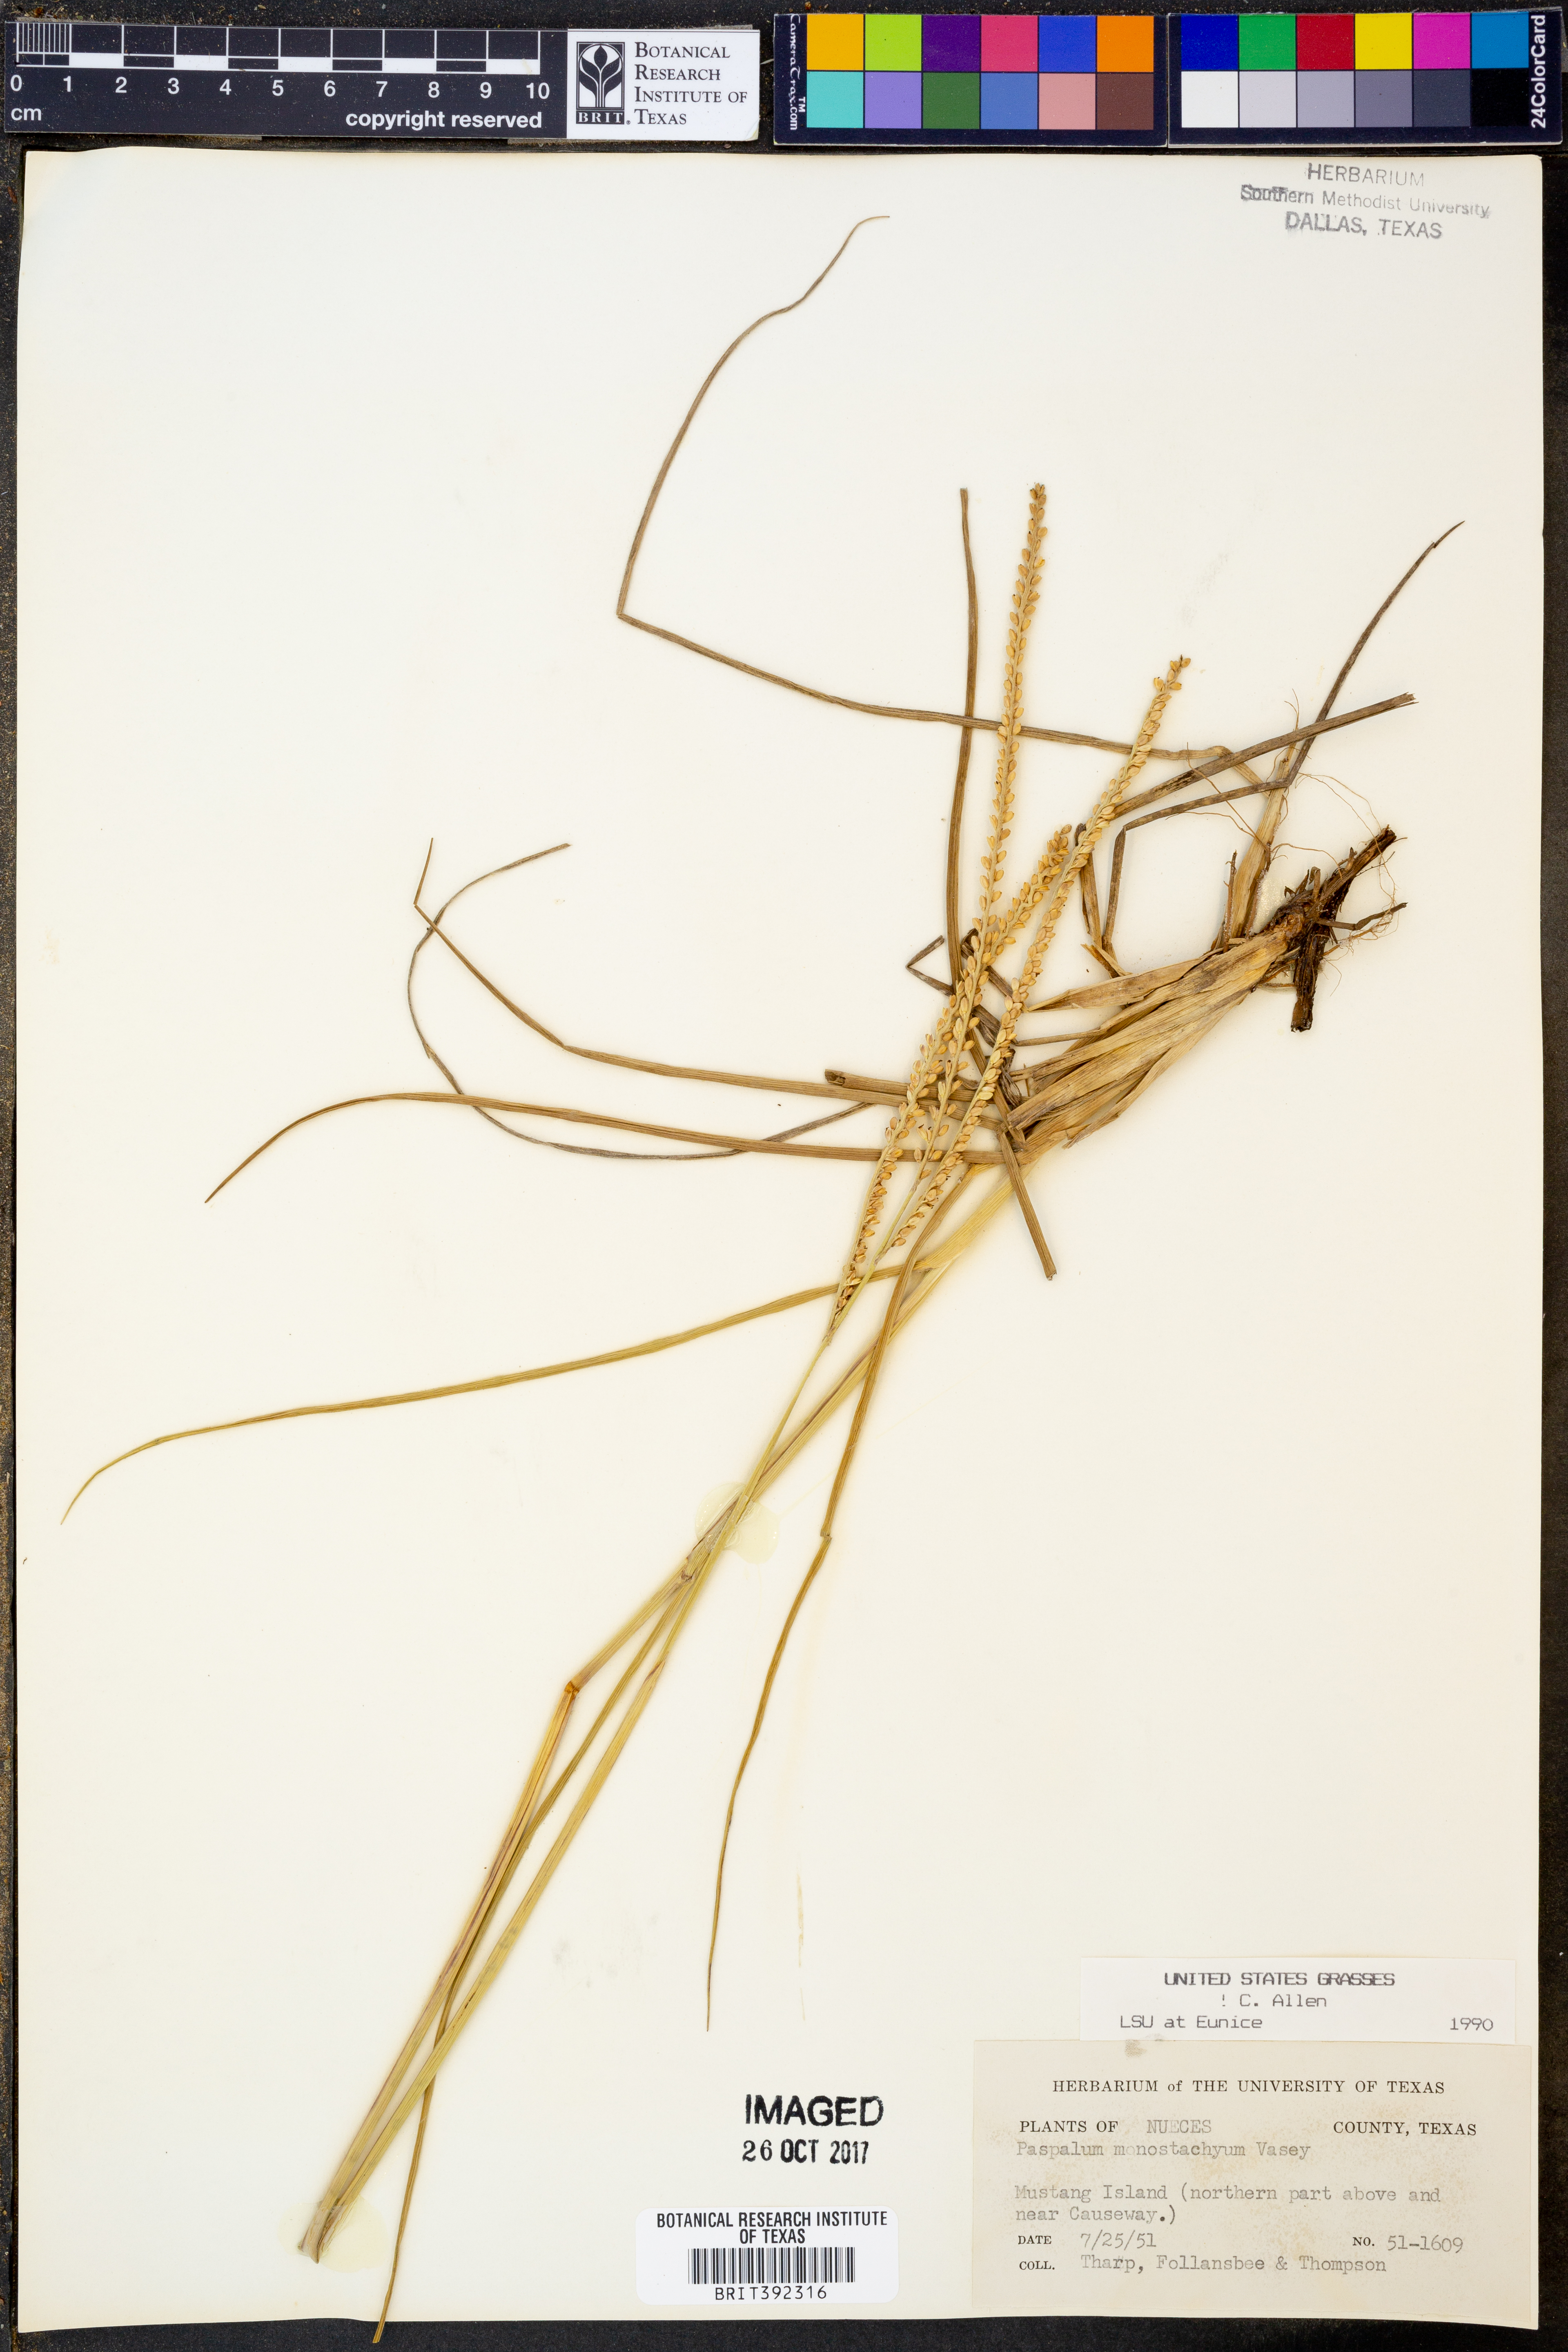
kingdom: Plantae
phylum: Tracheophyta
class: Liliopsida
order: Poales
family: Poaceae
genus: Paspalum
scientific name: Paspalum monostachyum
